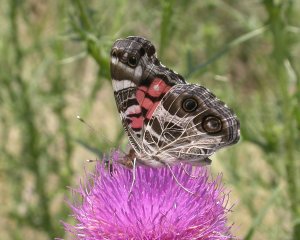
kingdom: Animalia
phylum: Arthropoda
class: Insecta
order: Lepidoptera
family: Nymphalidae
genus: Vanessa
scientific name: Vanessa virginiensis
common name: American Lady
